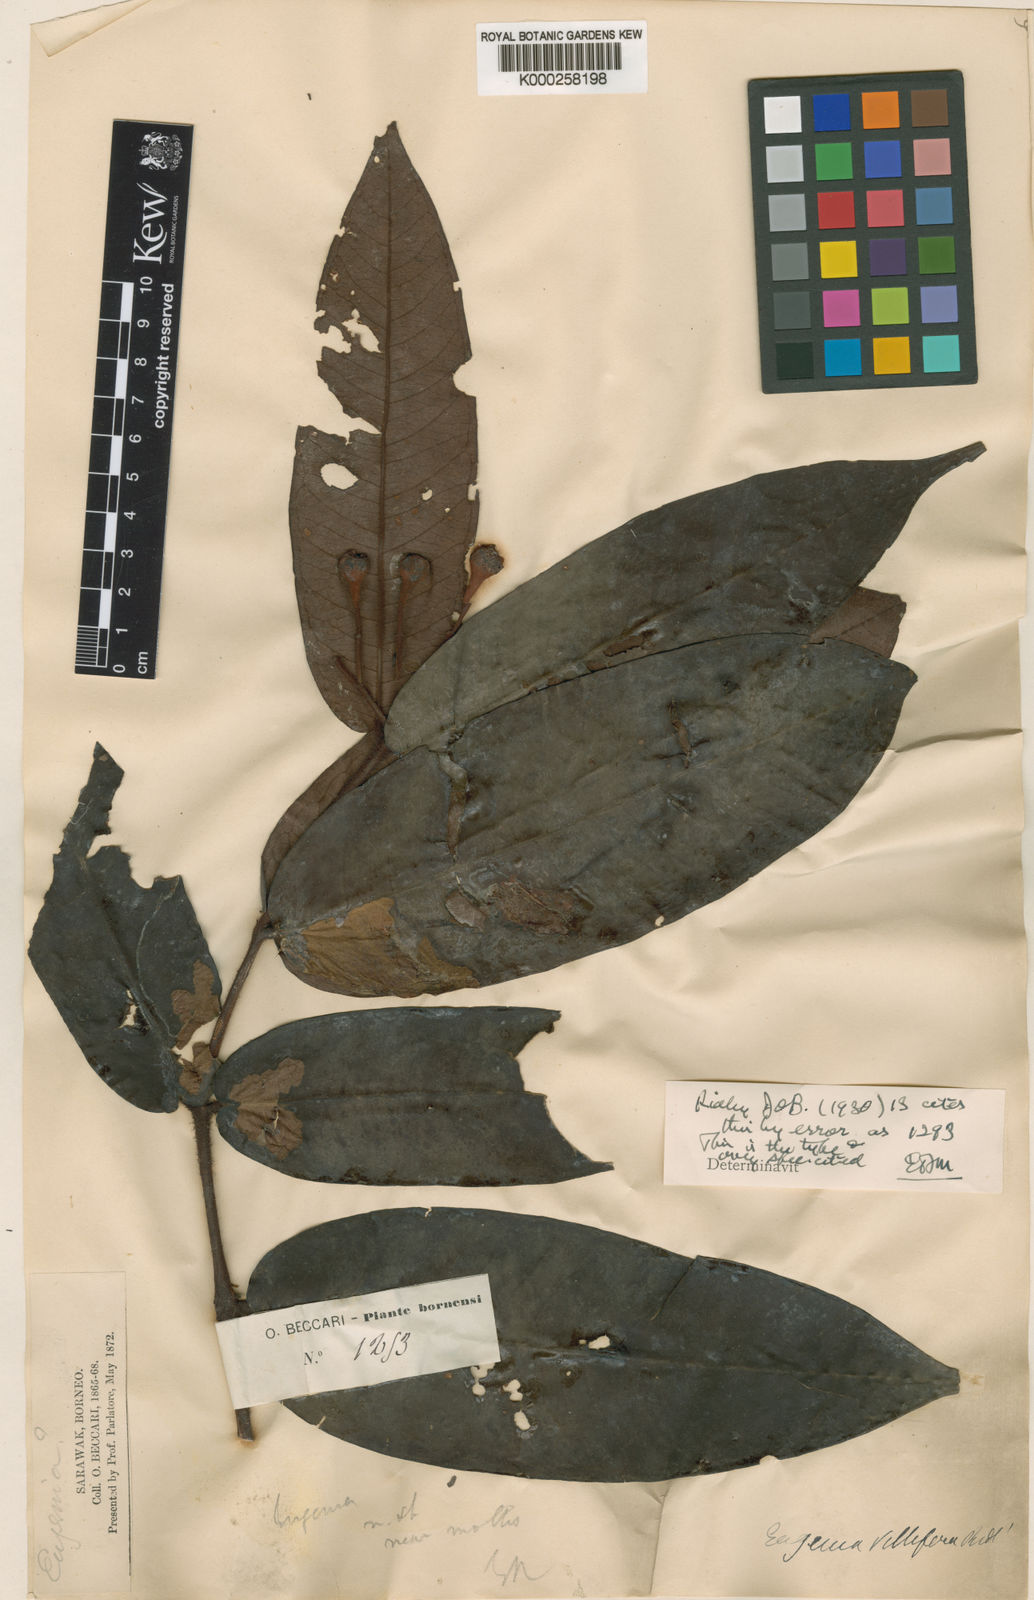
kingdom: Plantae
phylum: Tracheophyta
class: Magnoliopsida
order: Myrtales
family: Myrtaceae
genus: Syzygium
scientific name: Syzygium hirtum
